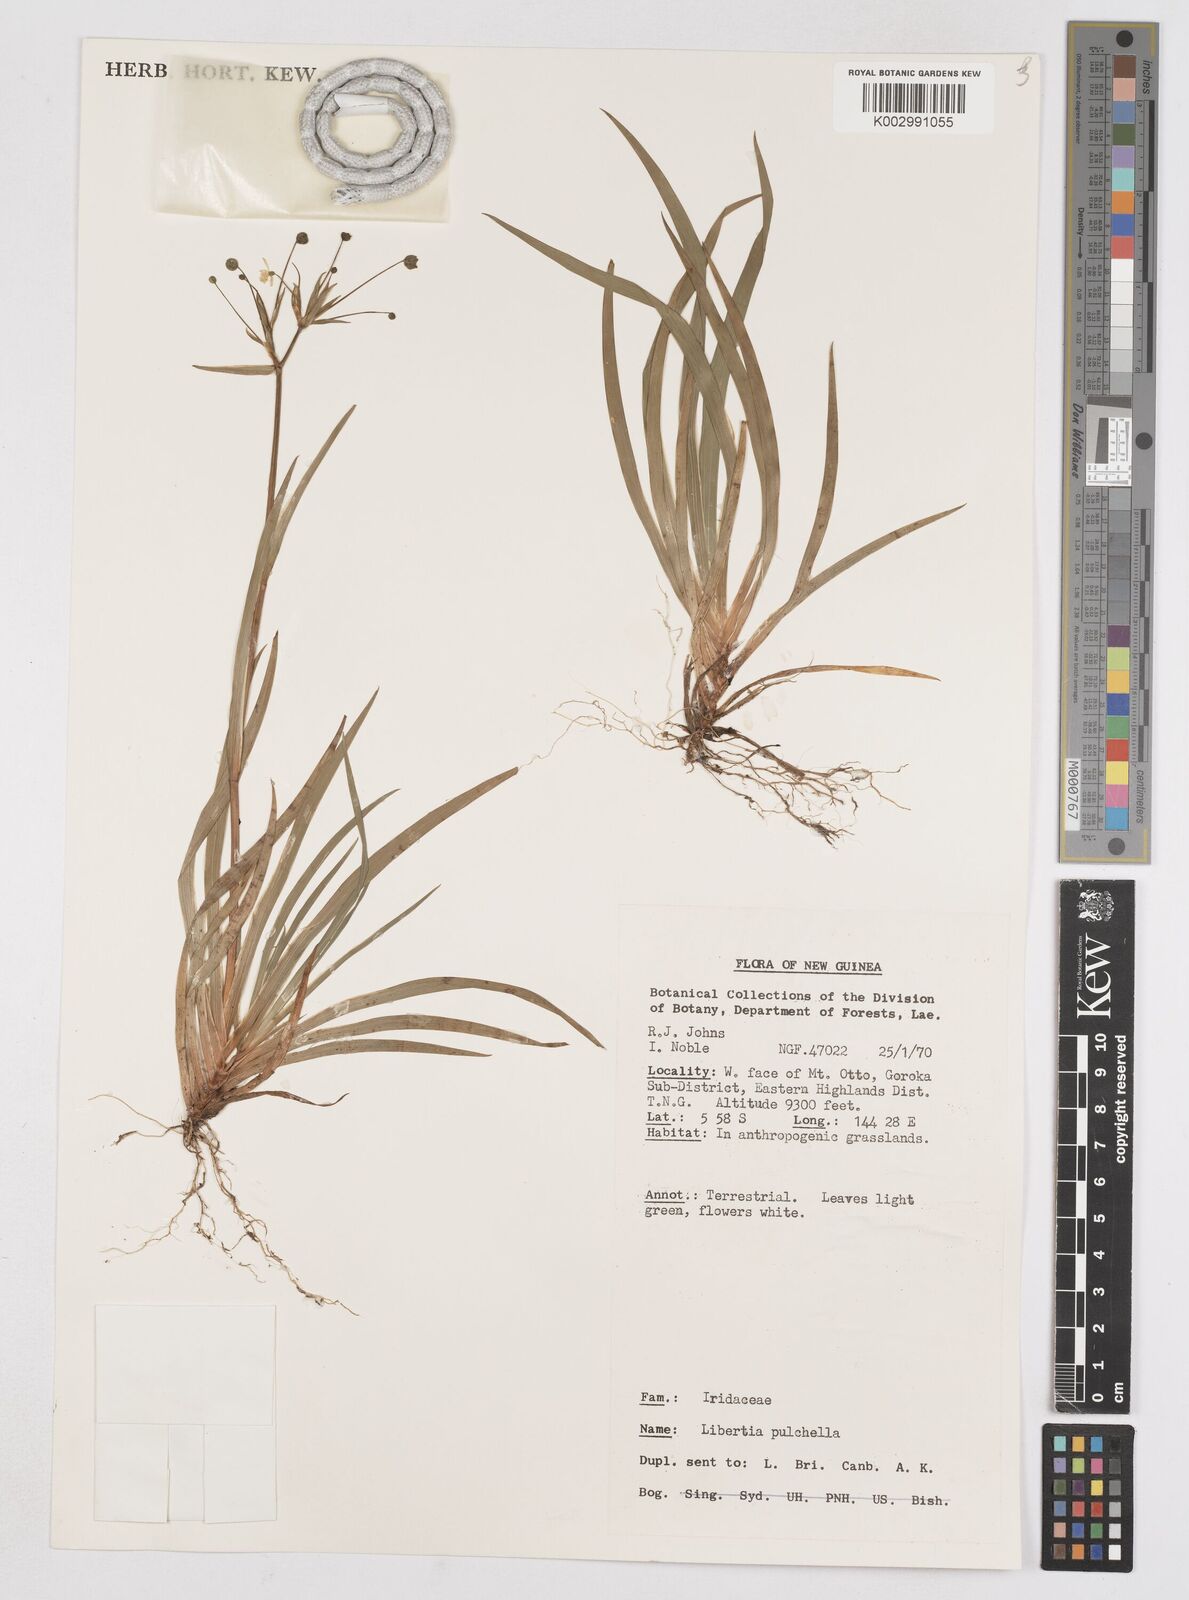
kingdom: Plantae
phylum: Tracheophyta
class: Liliopsida
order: Asparagales
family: Iridaceae
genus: Libertia
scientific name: Libertia pulchella
